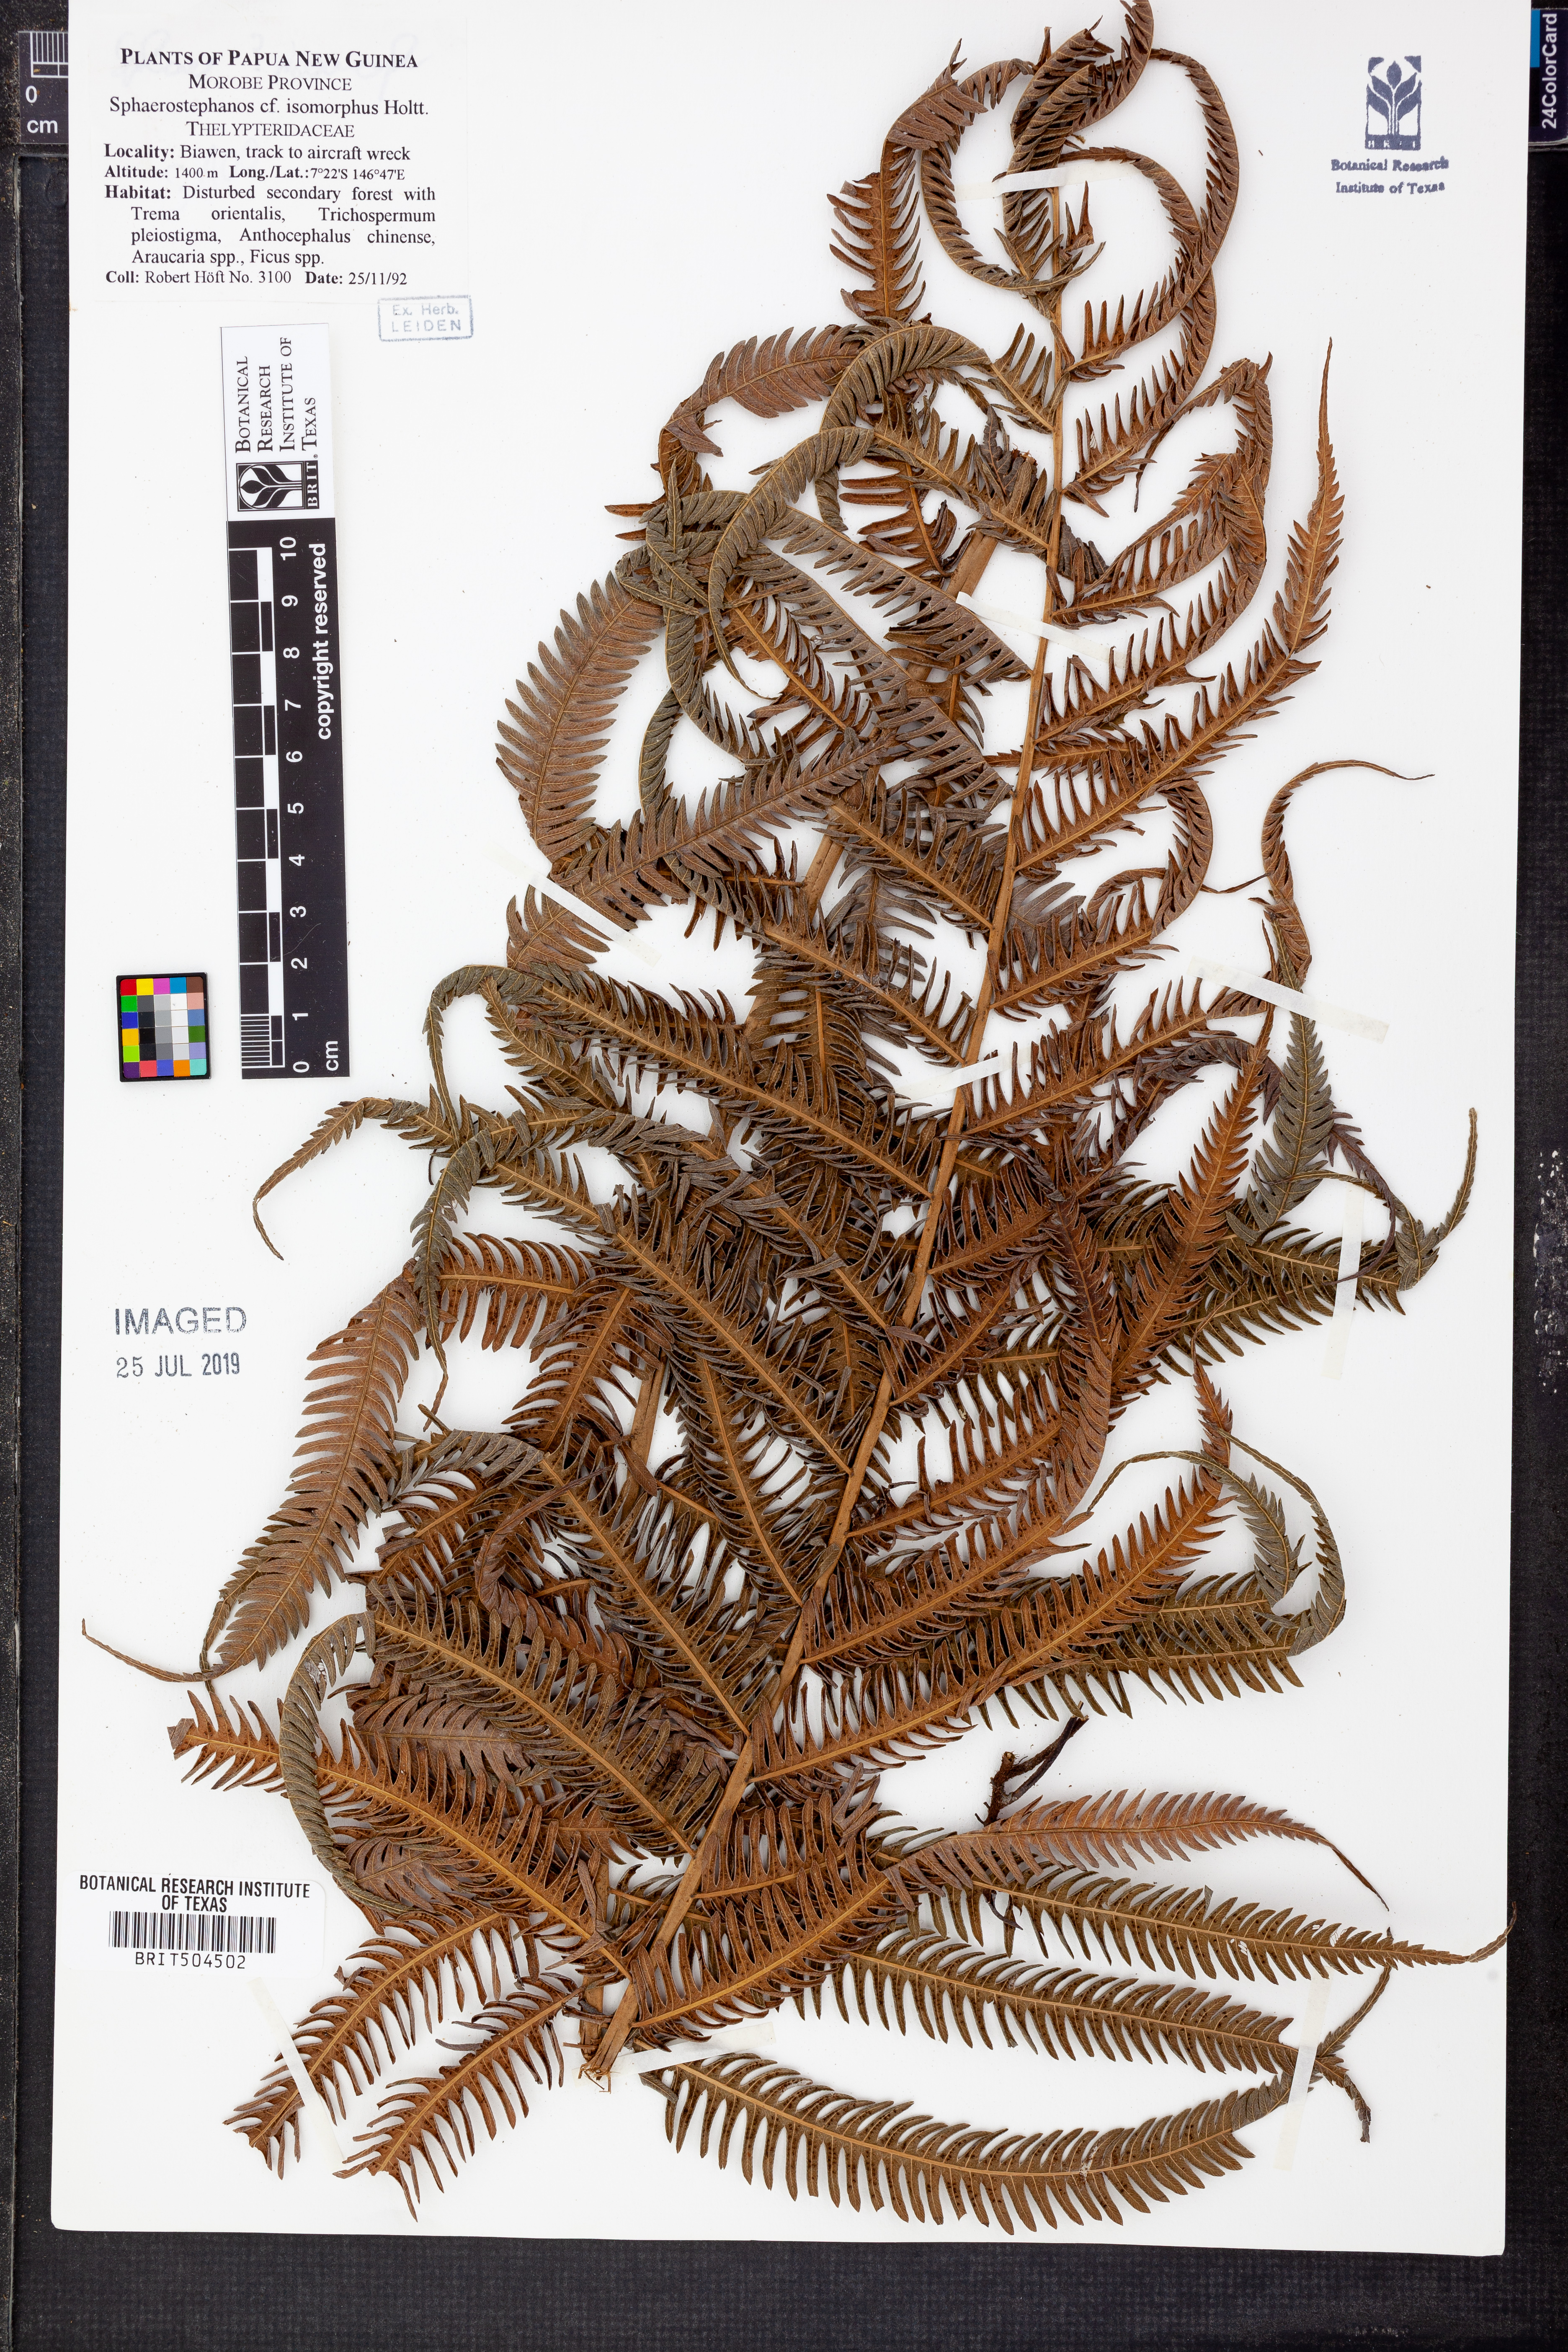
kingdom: Plantae
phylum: Tracheophyta
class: Polypodiopsida
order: Polypodiales
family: Thelypteridaceae
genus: Sphaerostephanos
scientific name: Sphaerostephanos isomorphus
